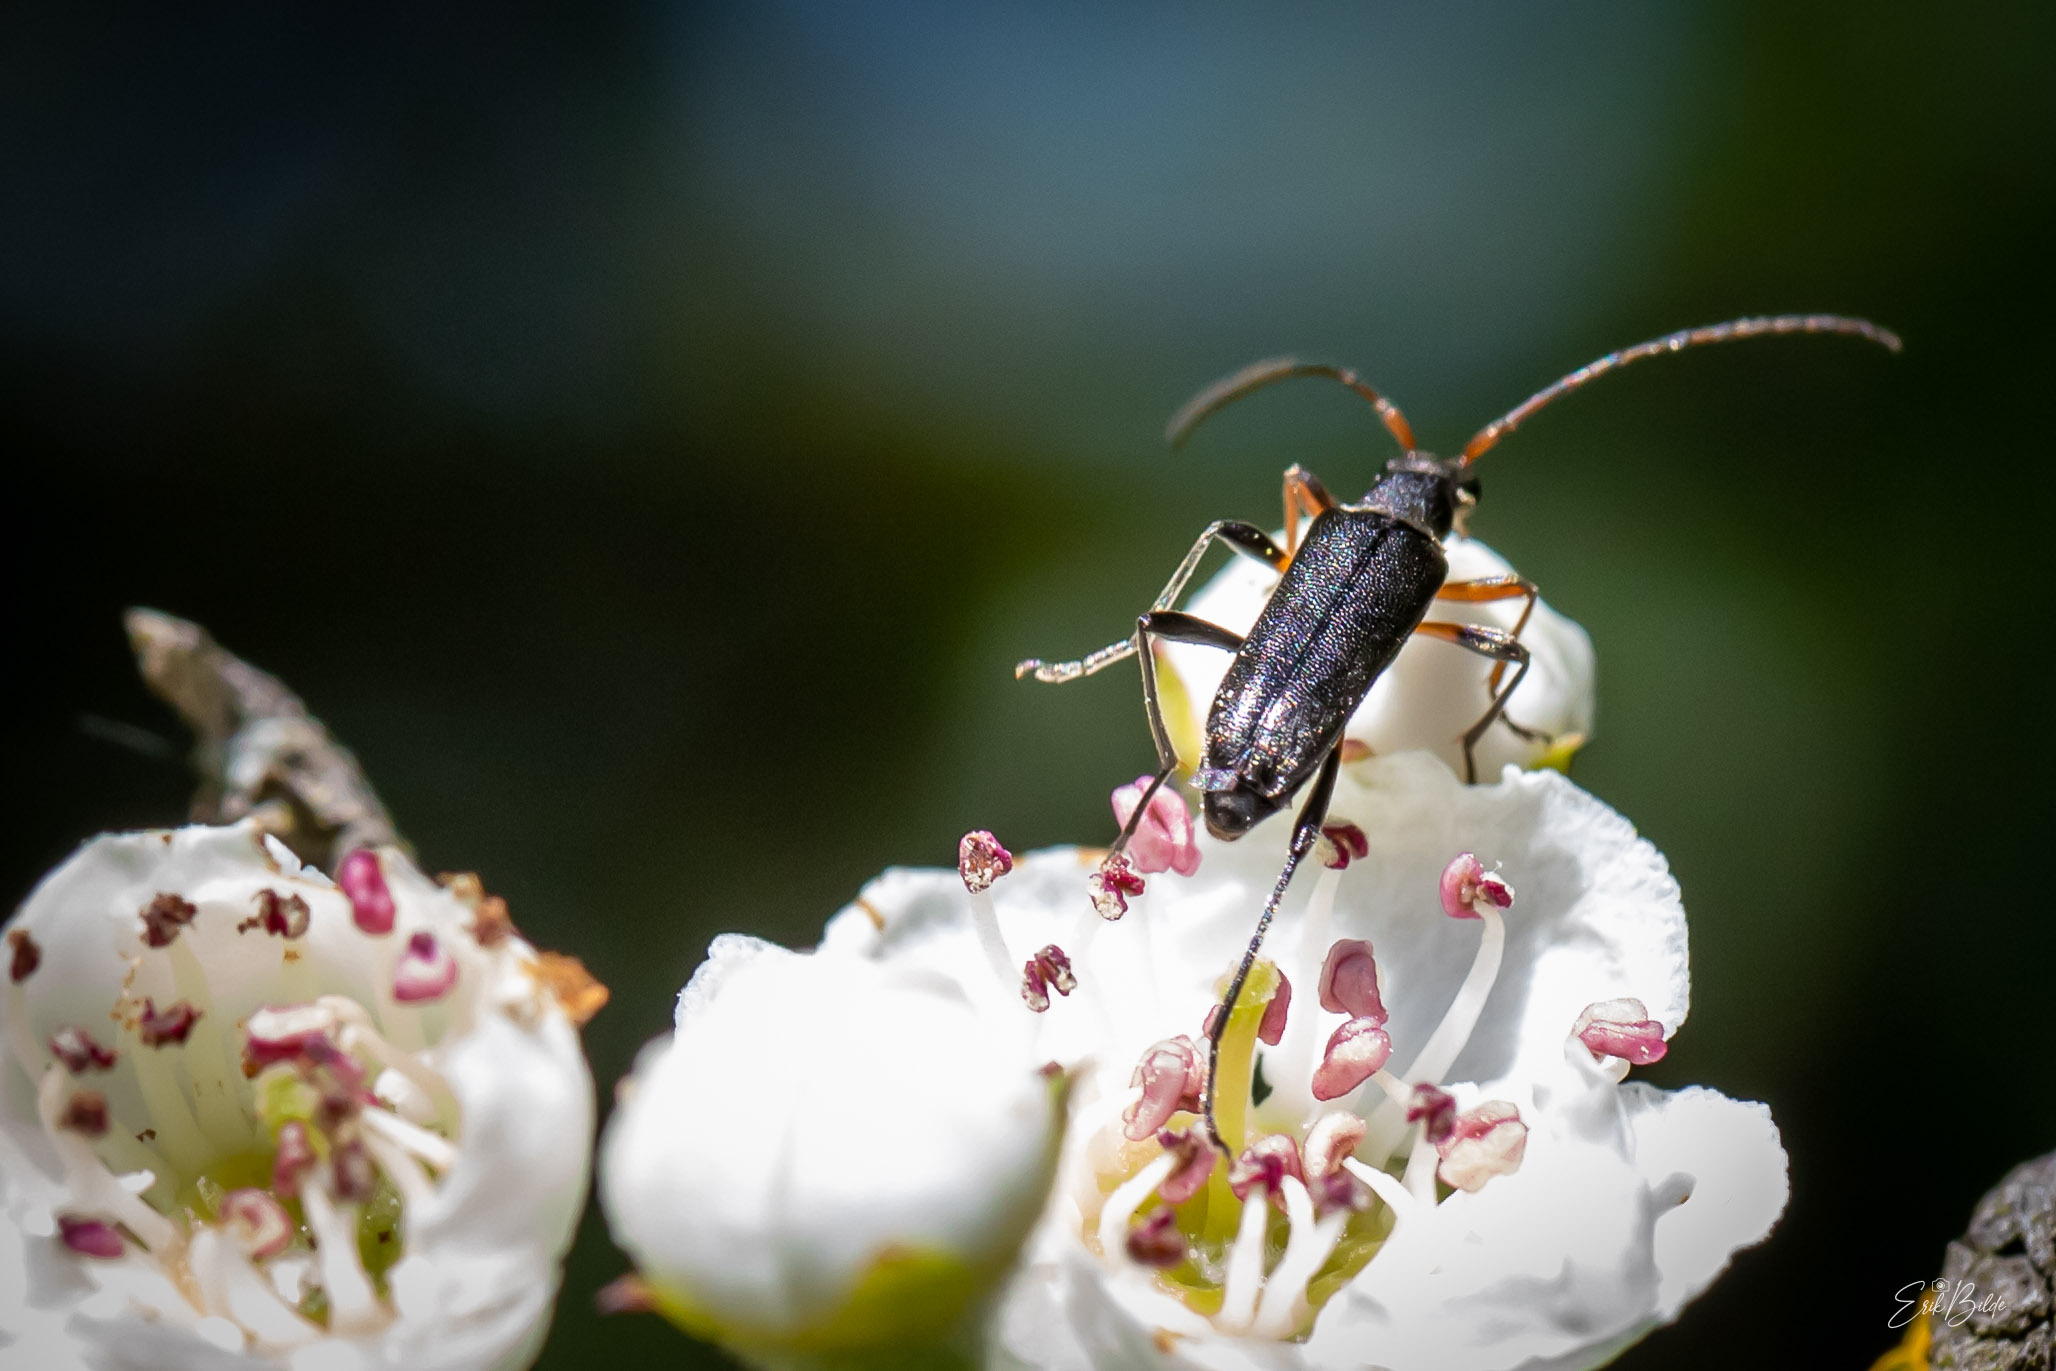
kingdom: Animalia
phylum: Arthropoda
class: Insecta
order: Coleoptera
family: Cerambycidae
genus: Grammoptera
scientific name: Grammoptera ruficornis
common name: Lille blomsterbuk
